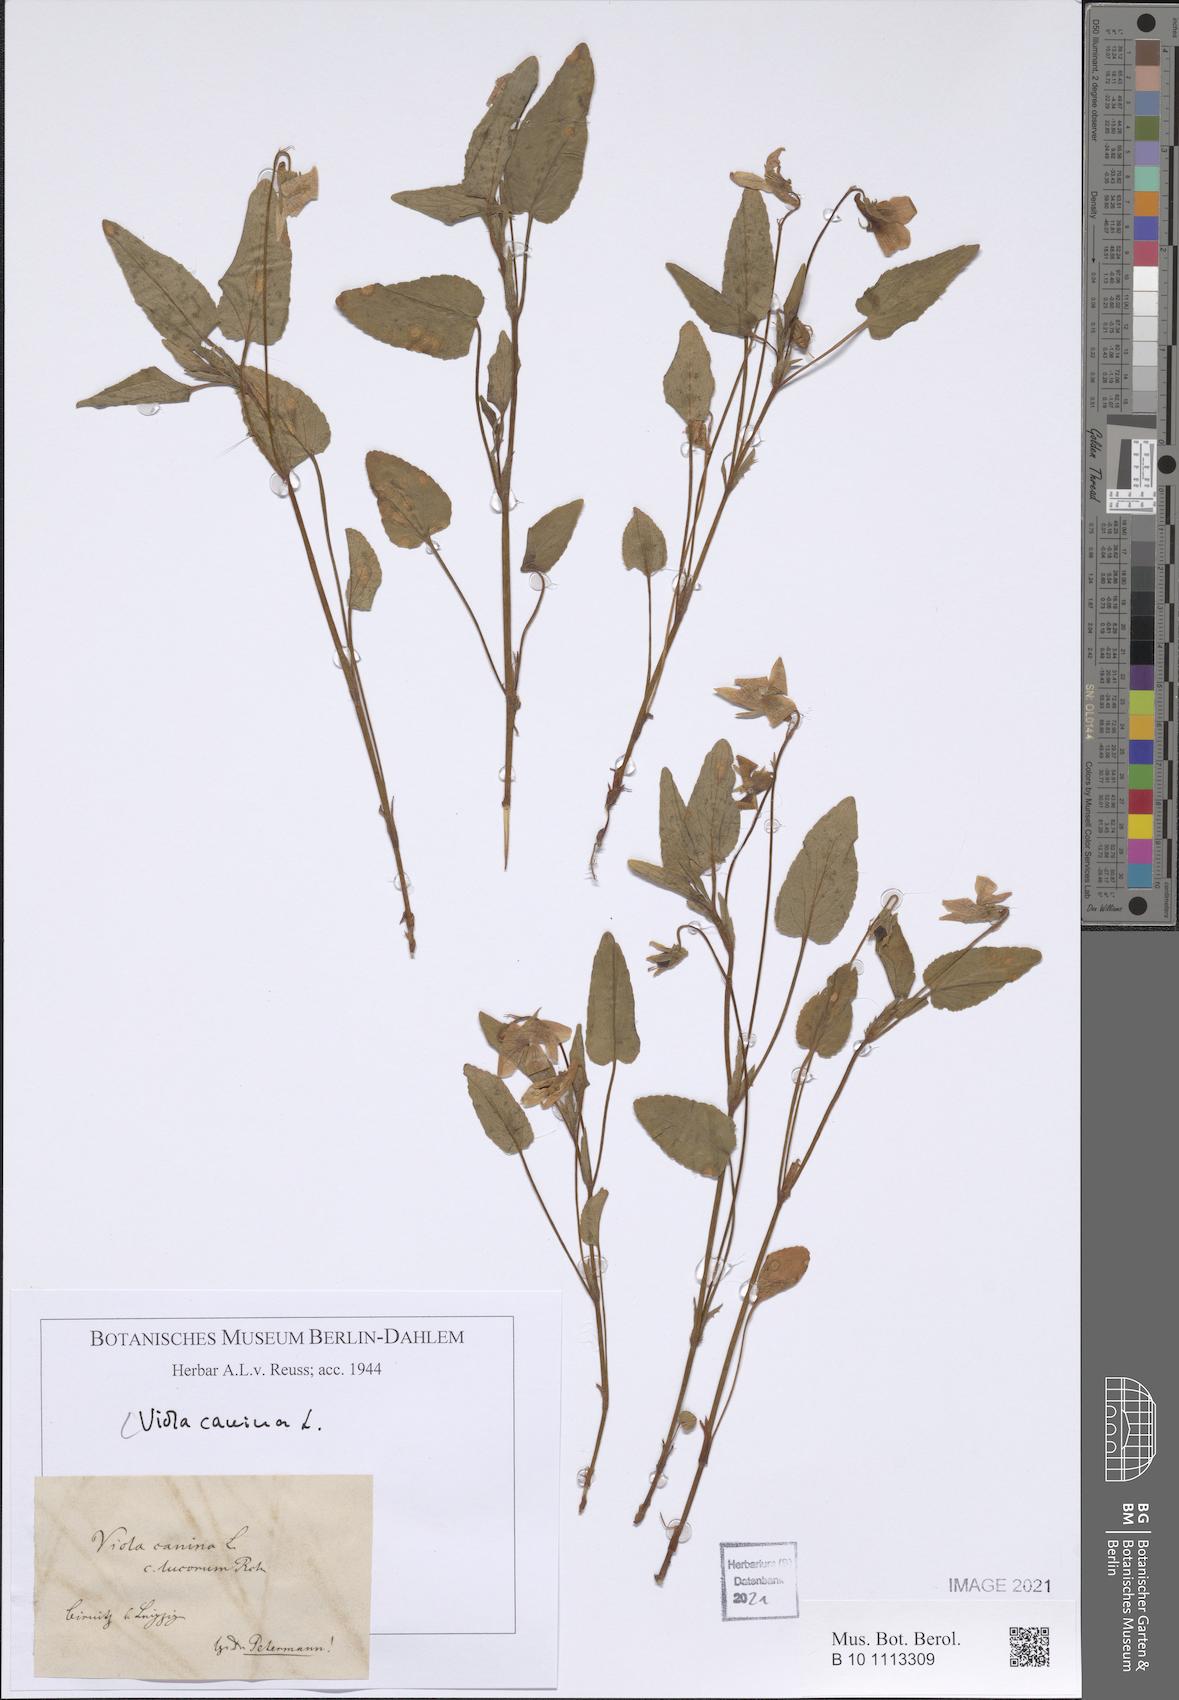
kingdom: Plantae
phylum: Tracheophyta
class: Magnoliopsida
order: Malpighiales
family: Violaceae
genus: Viola
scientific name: Viola kiliensis
